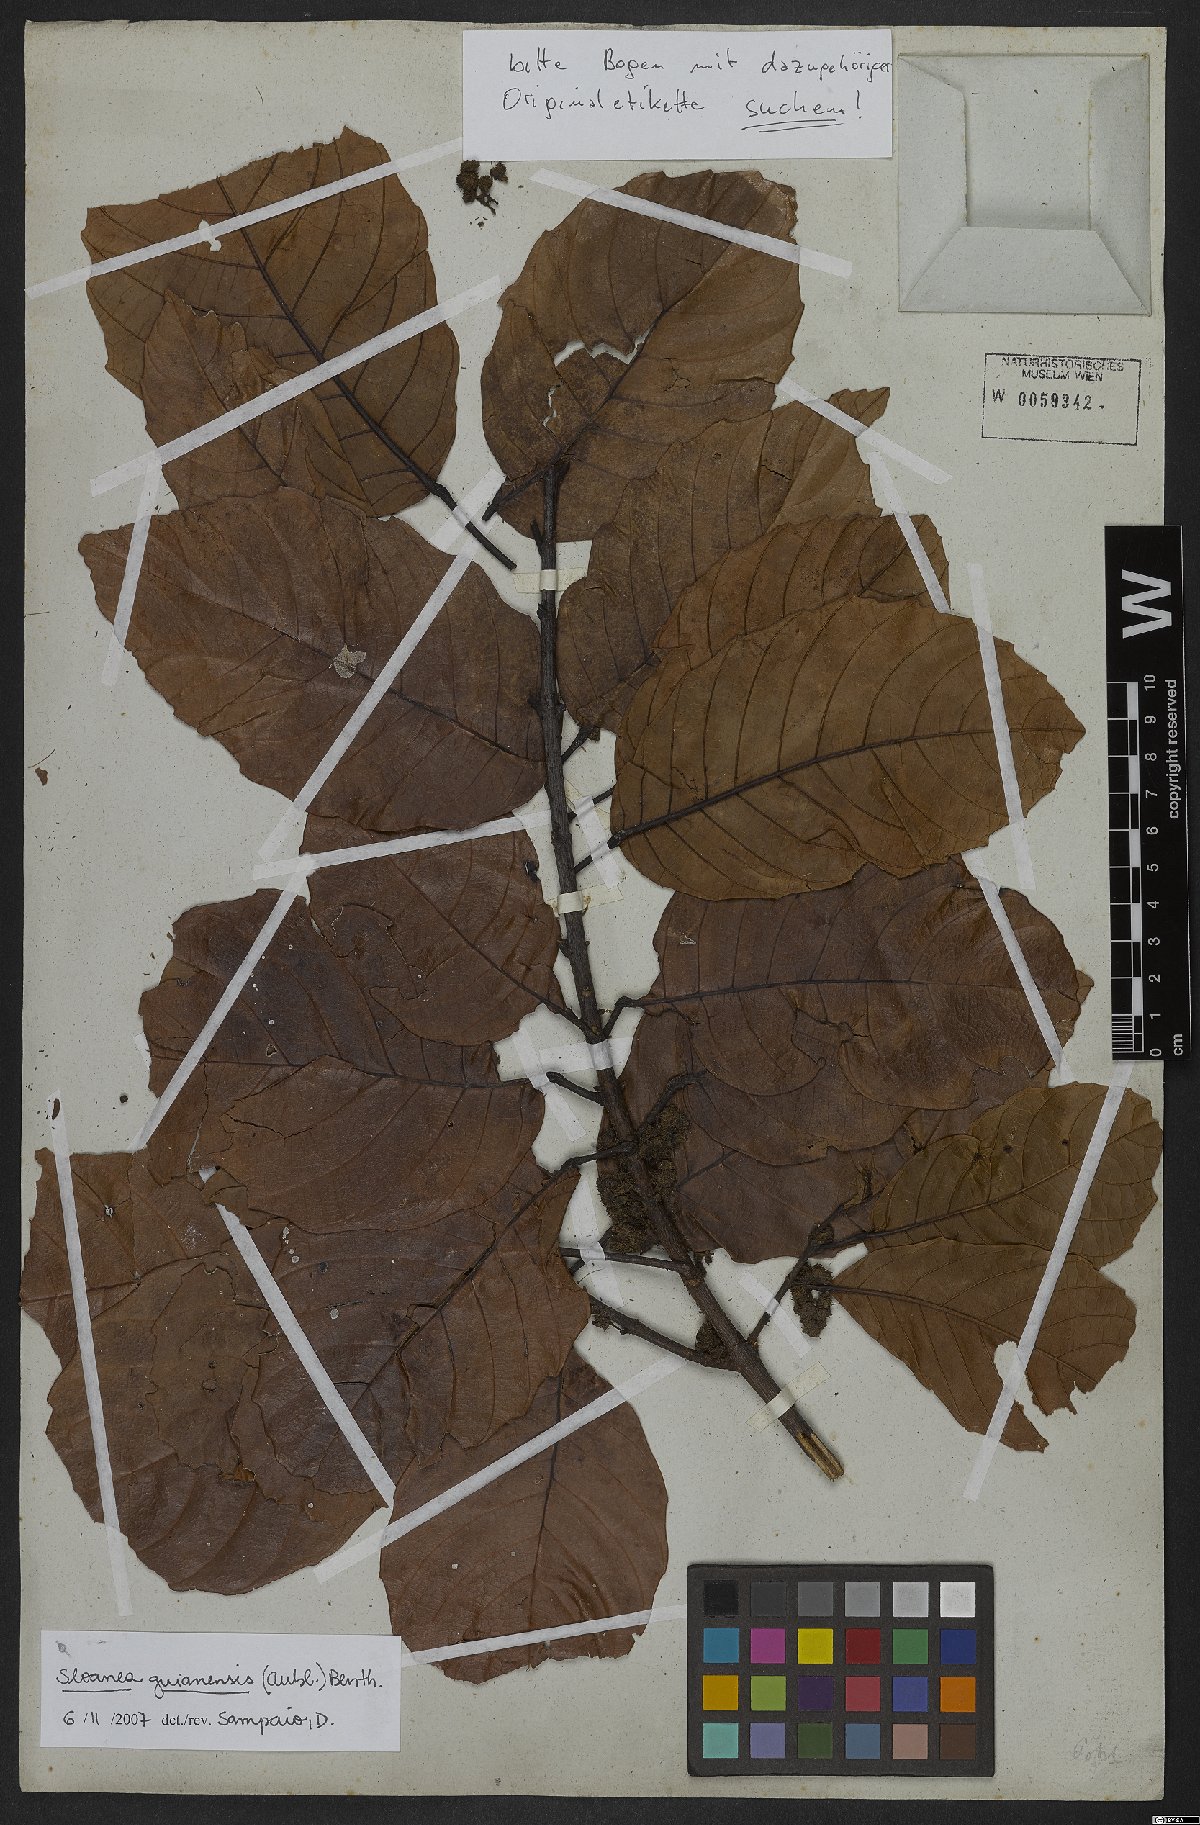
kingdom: Plantae
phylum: Tracheophyta
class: Magnoliopsida
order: Oxalidales
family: Elaeocarpaceae
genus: Sloanea
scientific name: Sloanea guianensis
